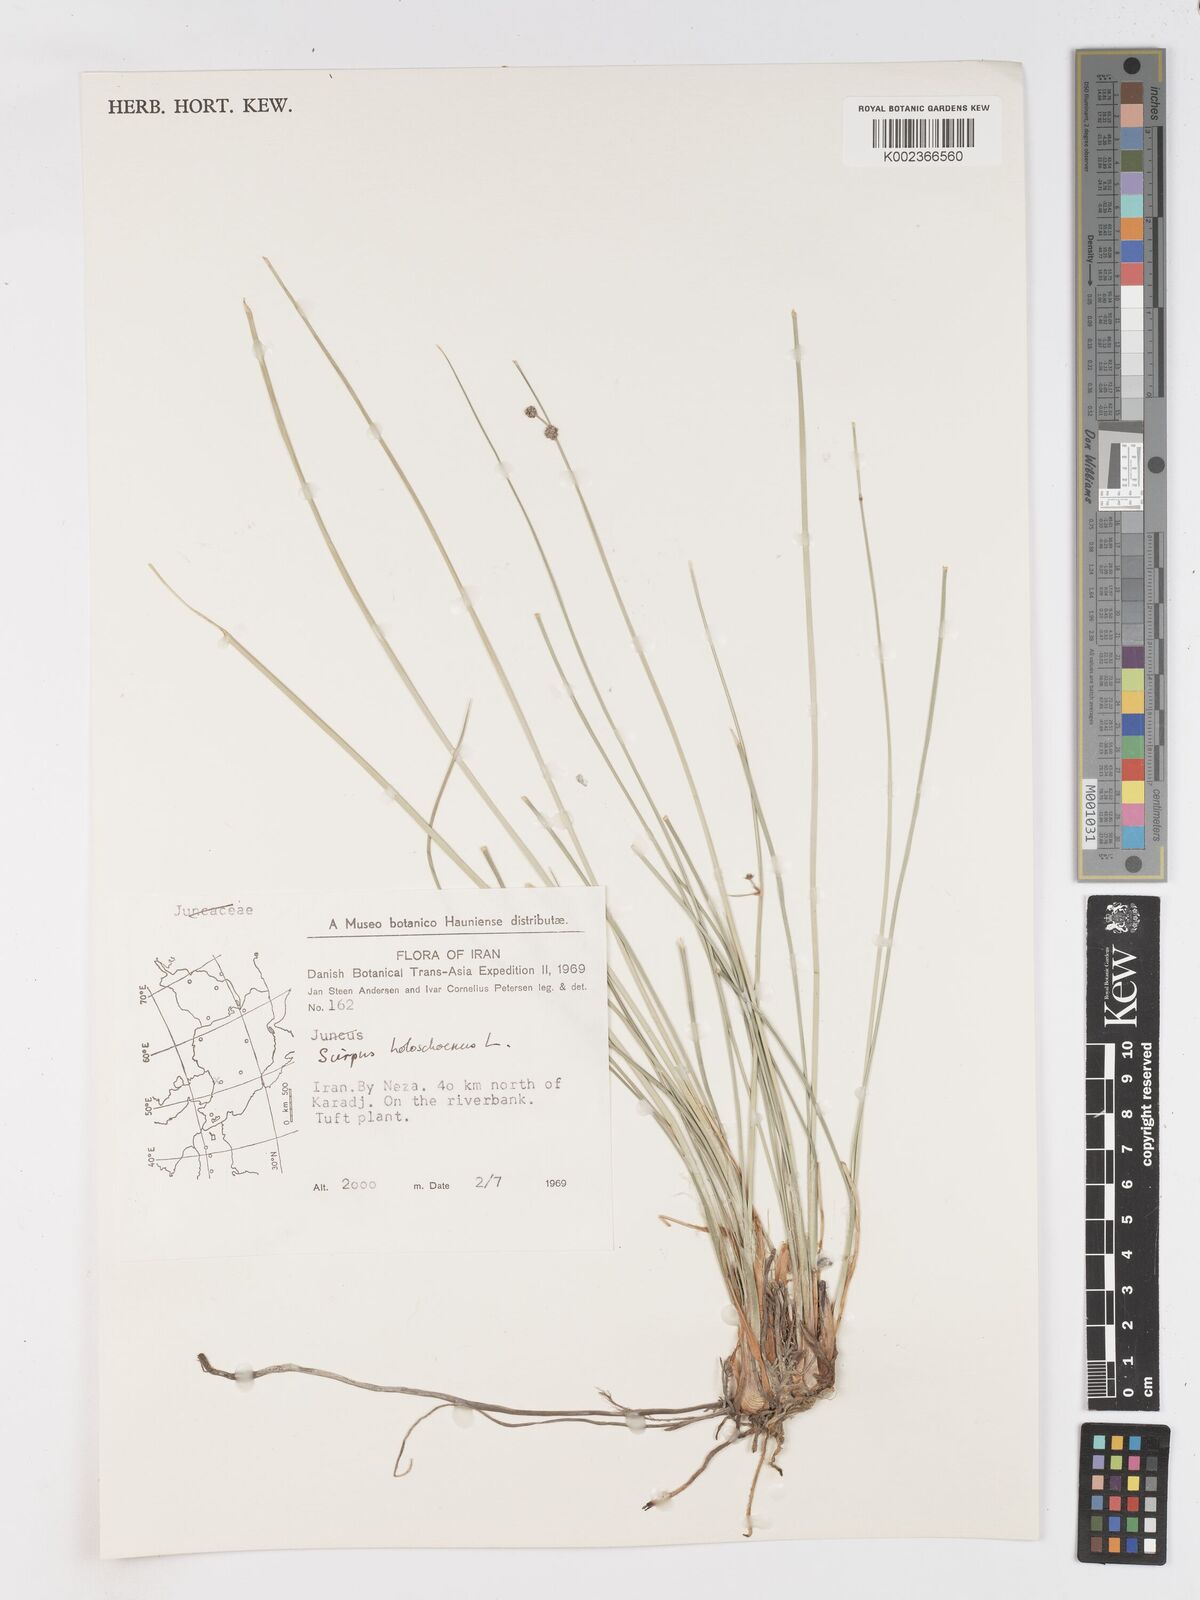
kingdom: Plantae
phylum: Tracheophyta
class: Liliopsida
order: Poales
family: Cyperaceae
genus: Scirpoides
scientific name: Scirpoides holoschoenus
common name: Round-headed club-rush
